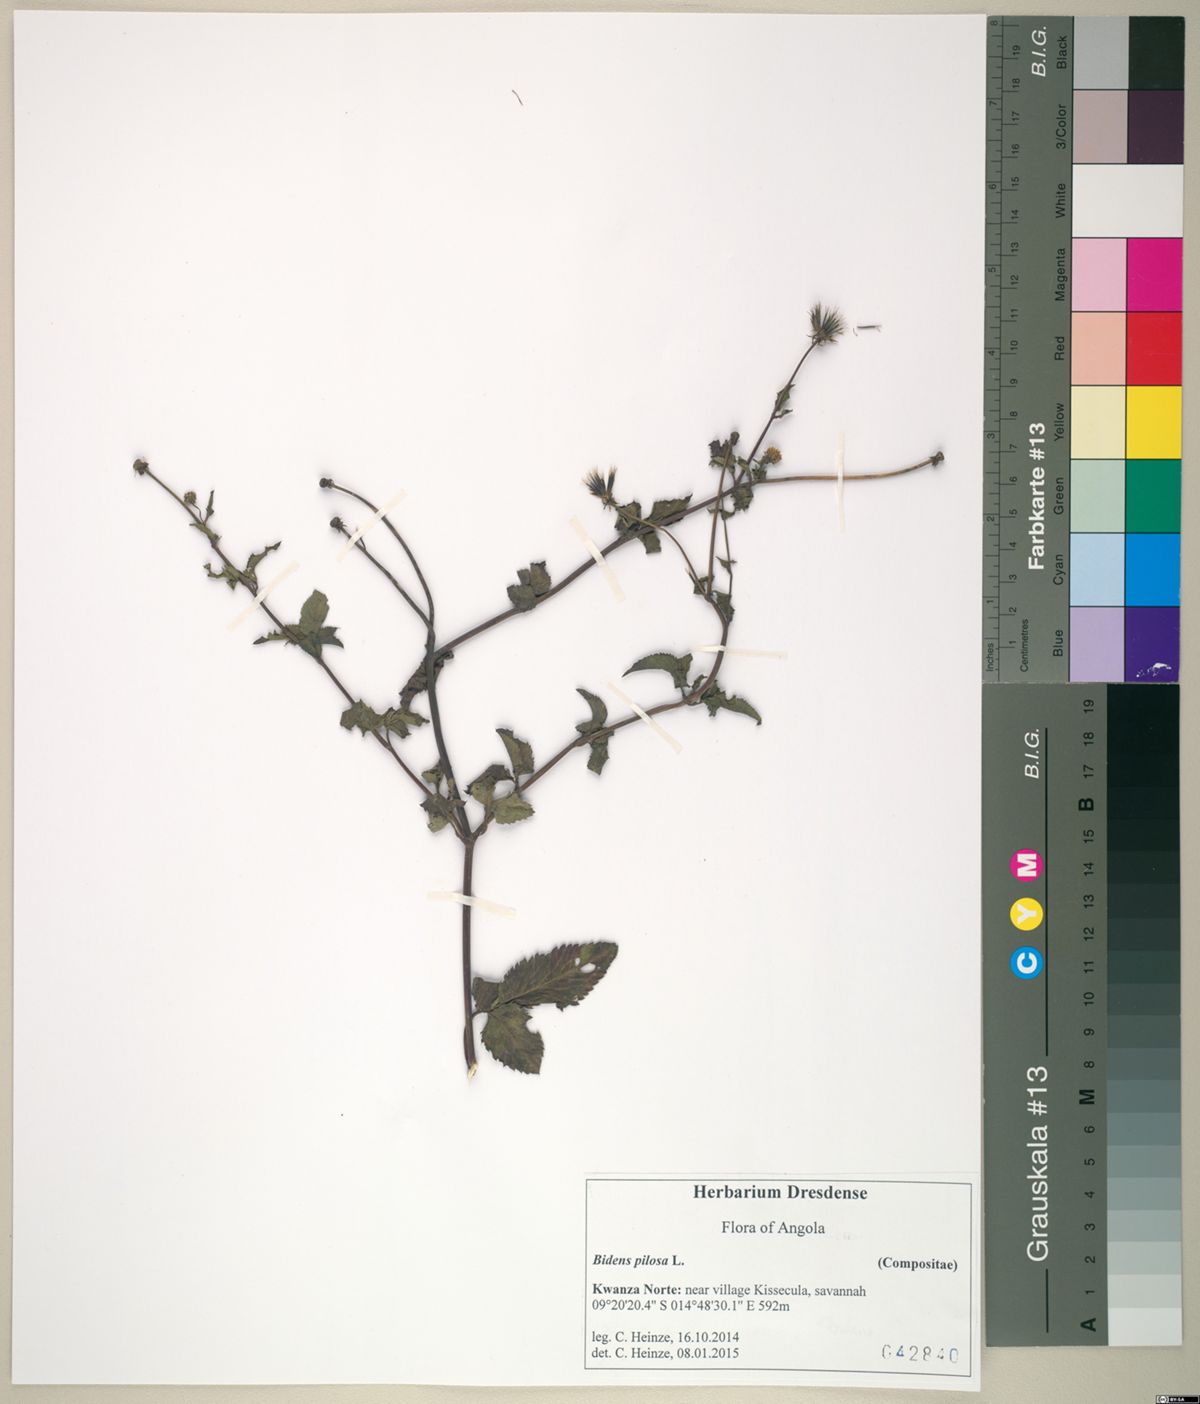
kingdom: Plantae
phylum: Tracheophyta
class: Magnoliopsida
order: Asterales
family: Asteraceae
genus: Bidens
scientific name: Bidens pilosa
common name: Black-jack
